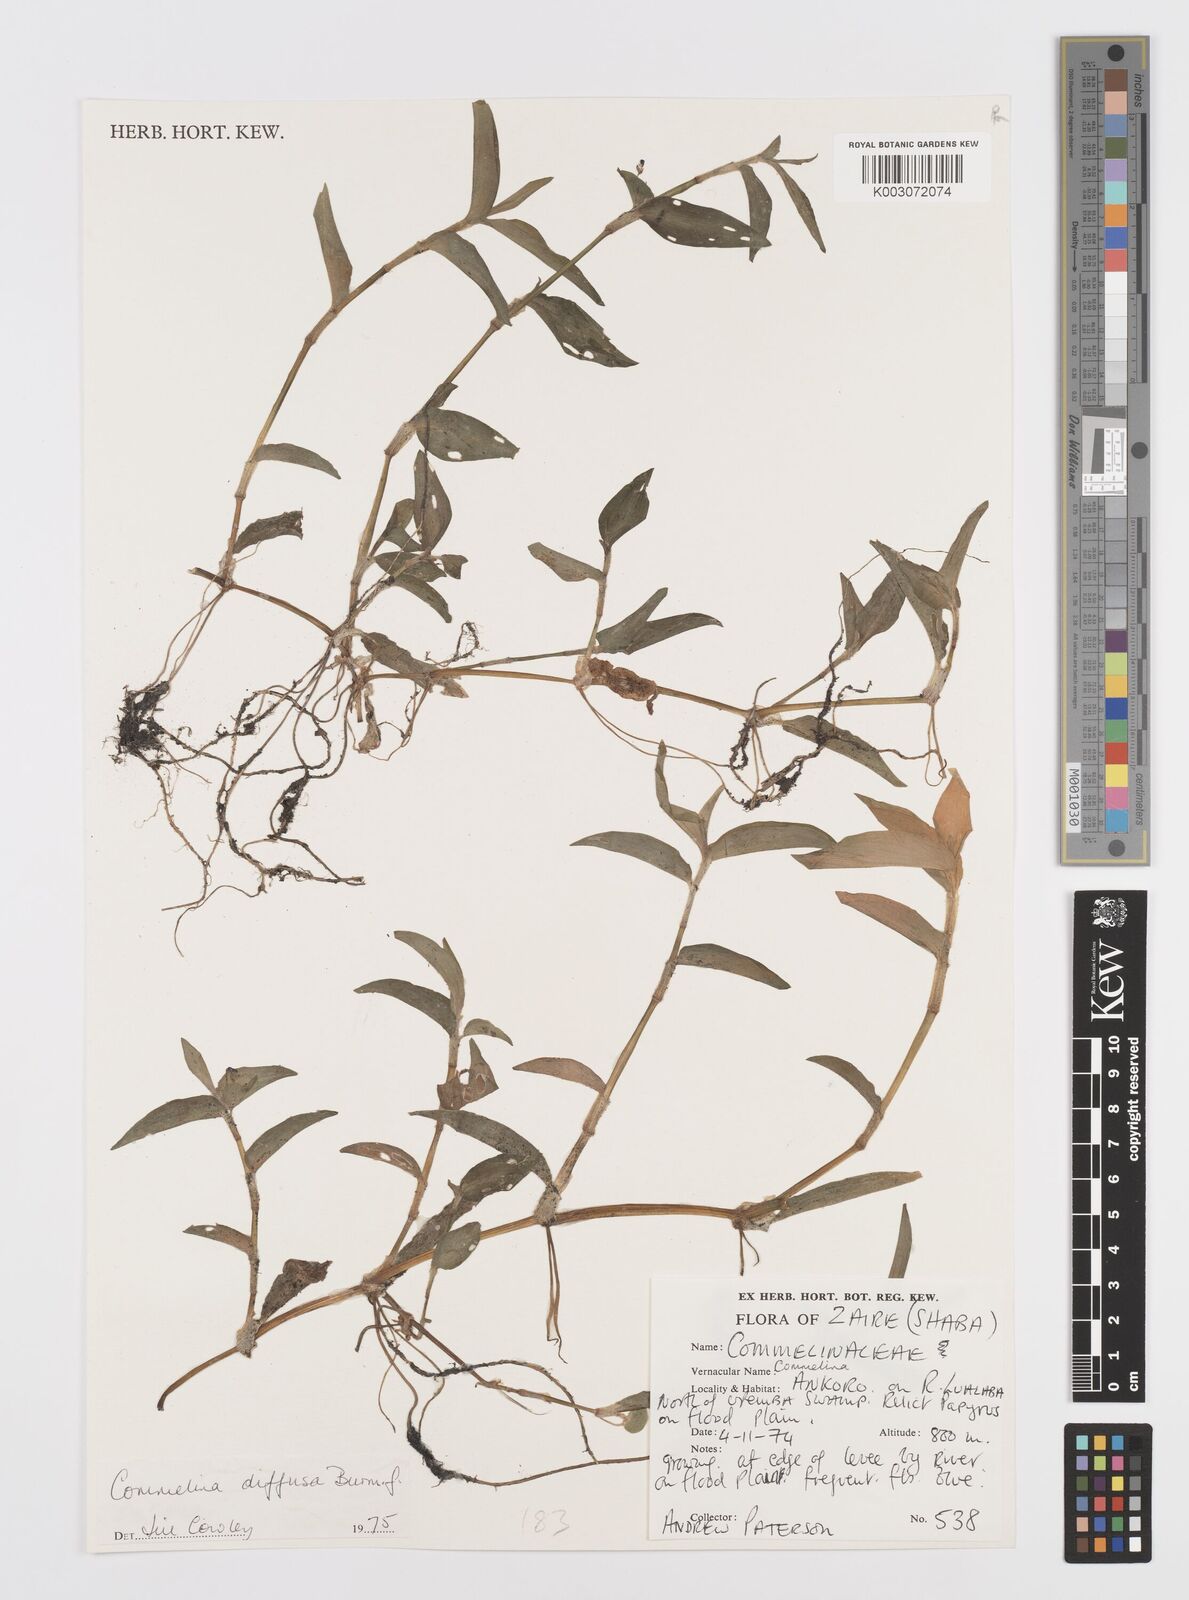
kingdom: Plantae
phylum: Tracheophyta
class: Liliopsida
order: Commelinales
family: Commelinaceae
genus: Commelina
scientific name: Commelina diffusa
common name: Climbing dayflower
